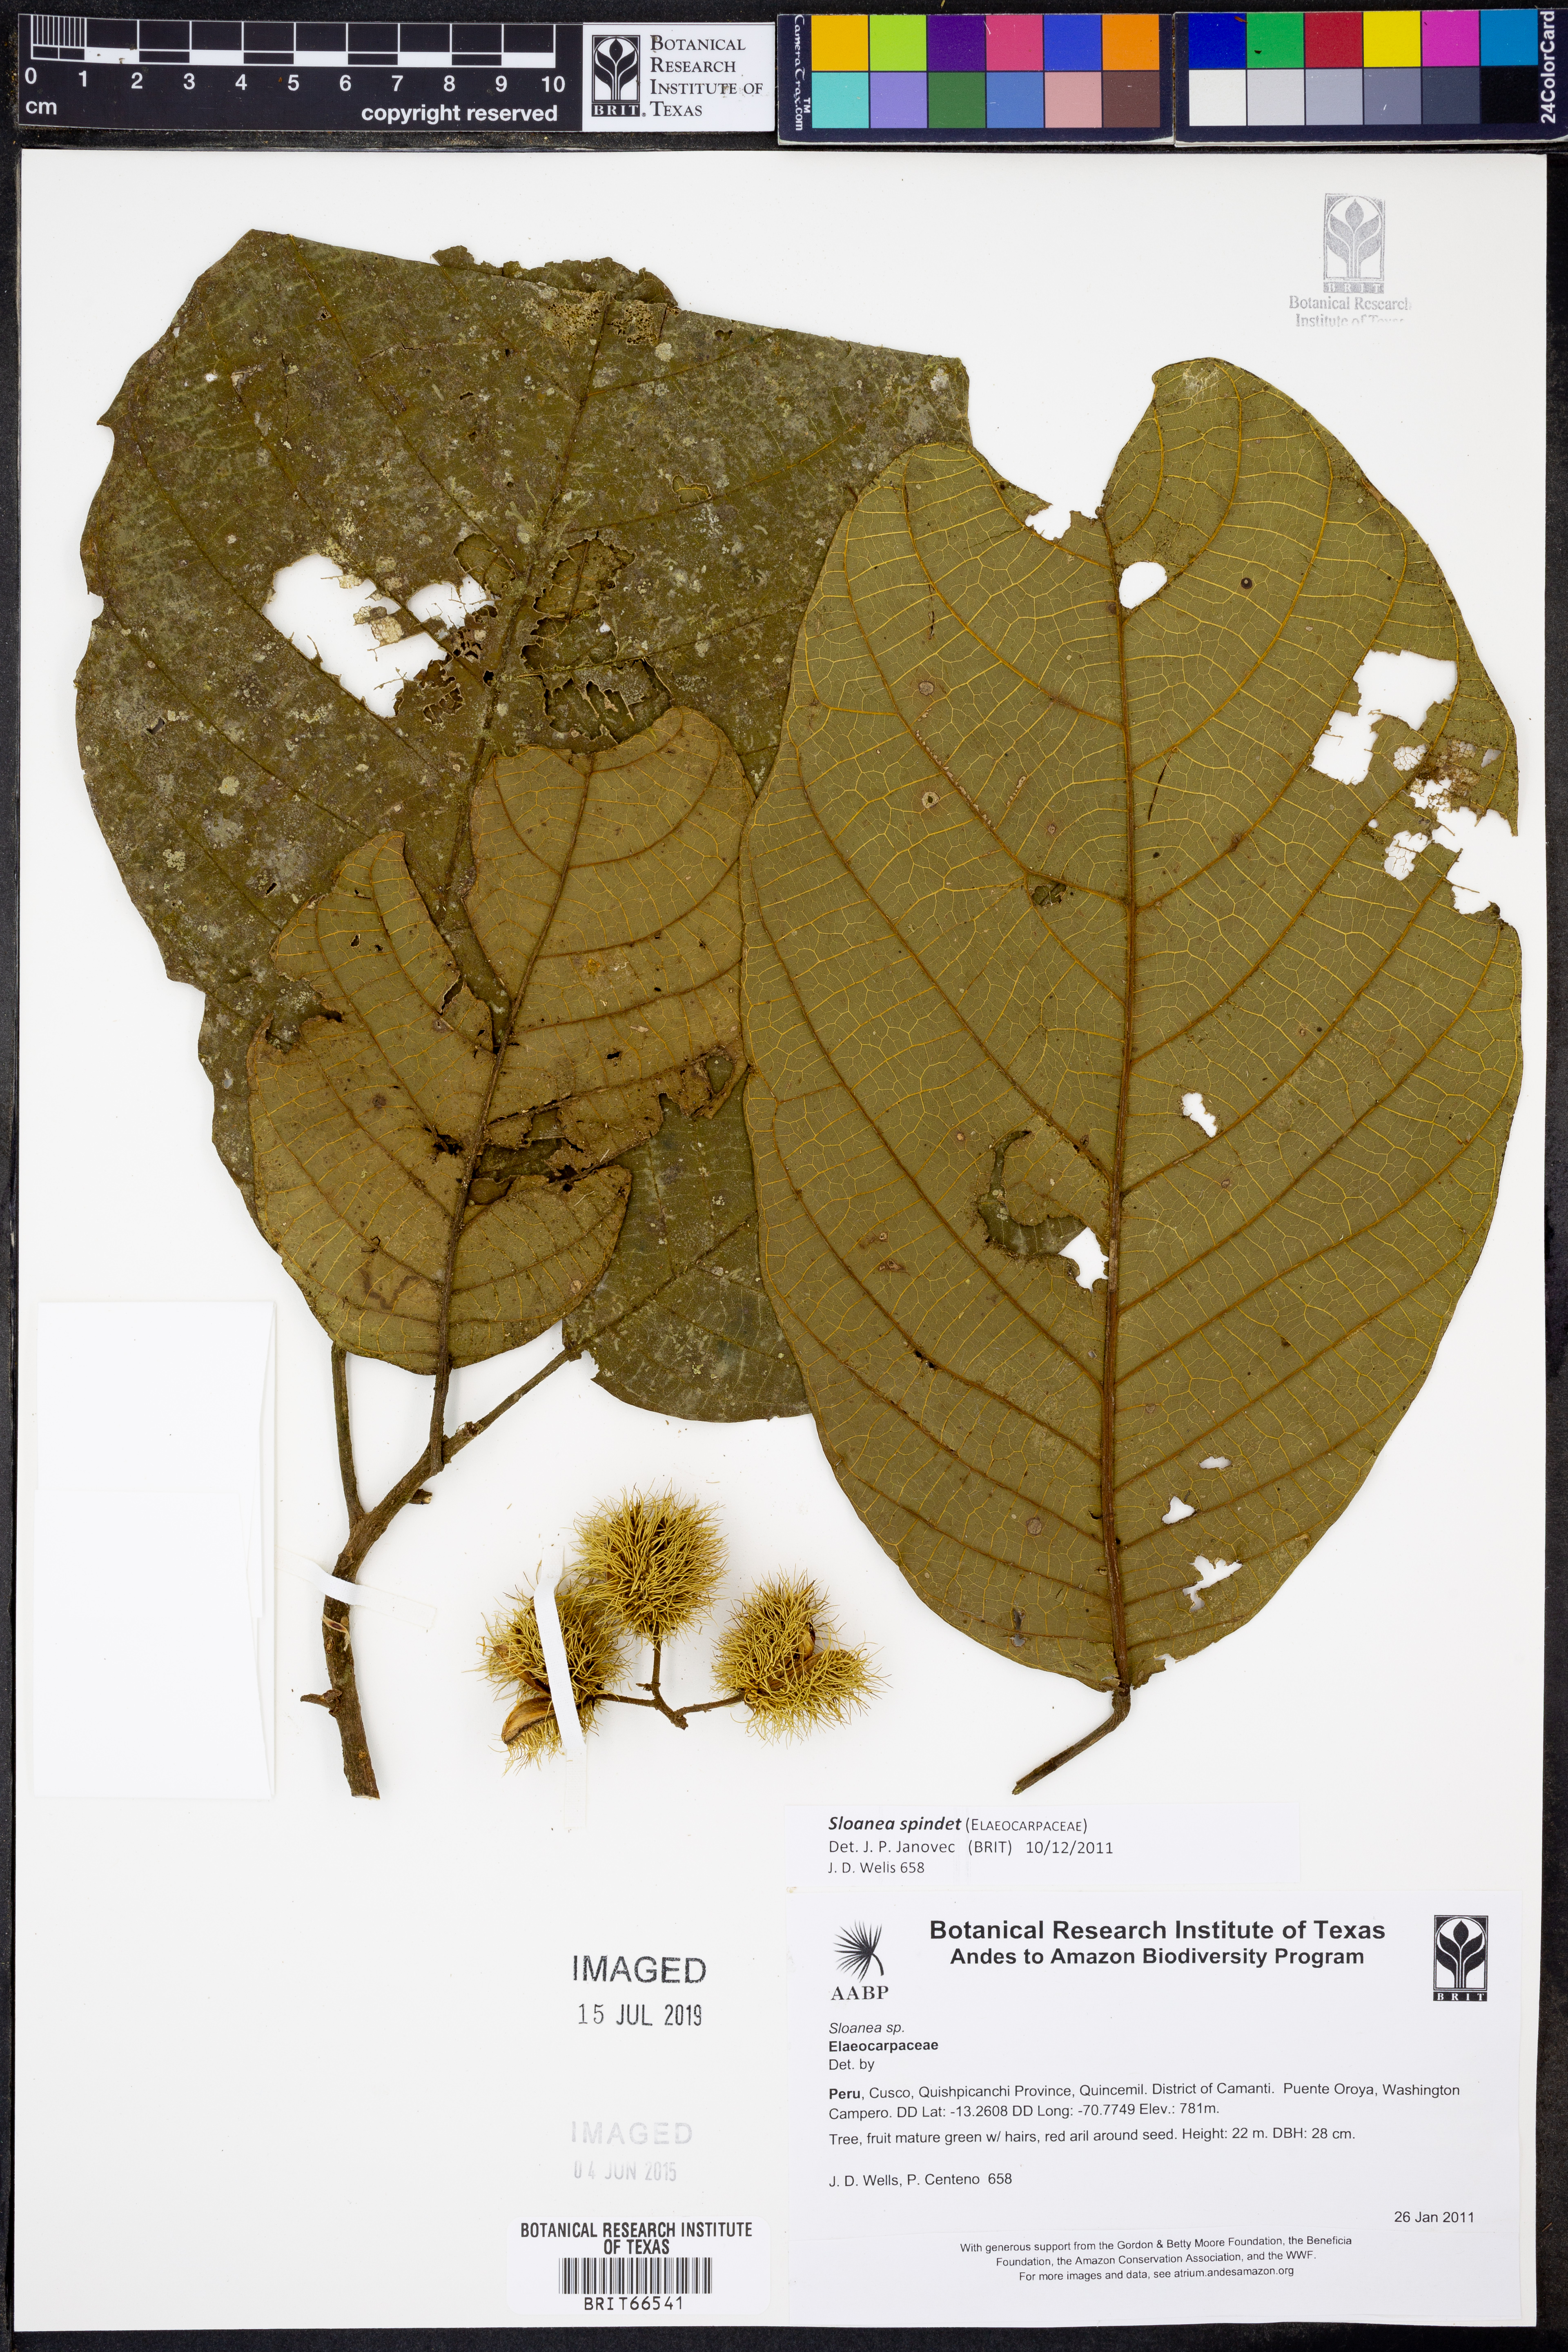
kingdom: Plantae
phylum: Tracheophyta
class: Magnoliopsida
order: Oxalidales
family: Elaeocarpaceae
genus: Sloanea
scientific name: Sloanea
